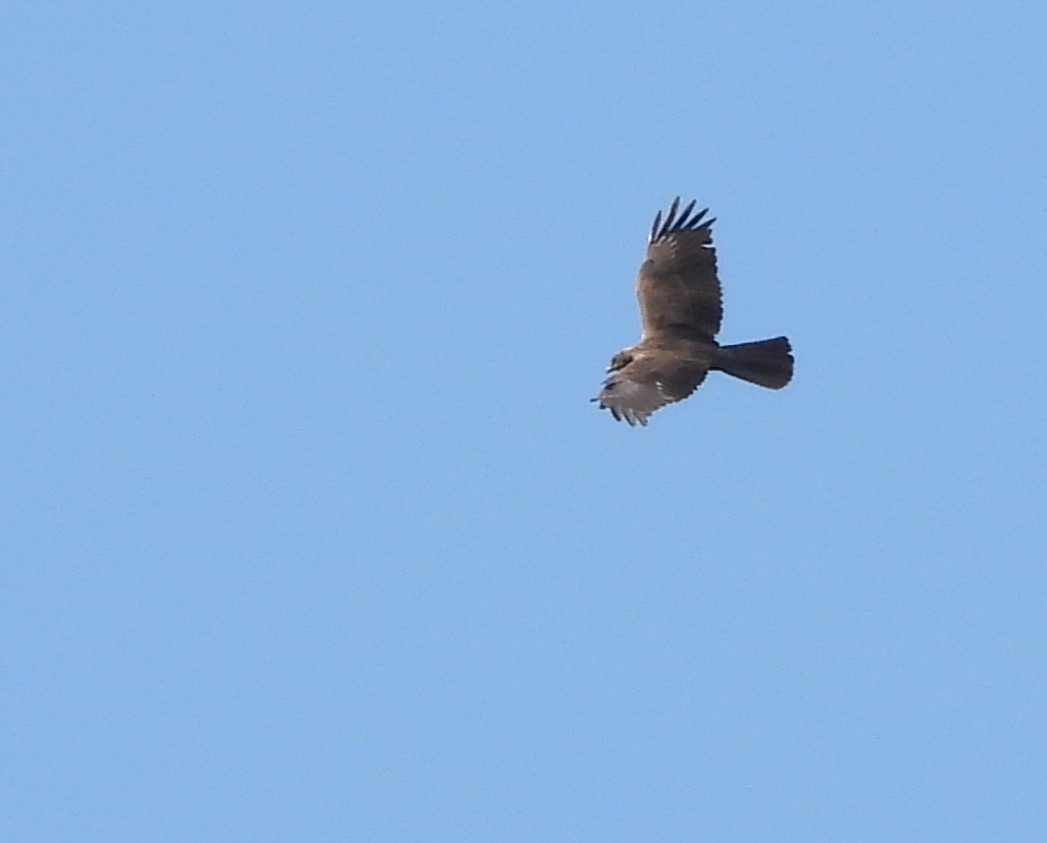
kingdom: Animalia
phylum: Chordata
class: Aves
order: Accipitriformes
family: Accipitridae
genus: Circus
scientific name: Circus aeruginosus
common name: Rørhøg
